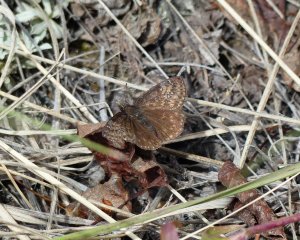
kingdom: Animalia
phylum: Arthropoda
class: Insecta
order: Lepidoptera
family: Hesperiidae
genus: Gesta
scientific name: Gesta
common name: Persius Duskywing
